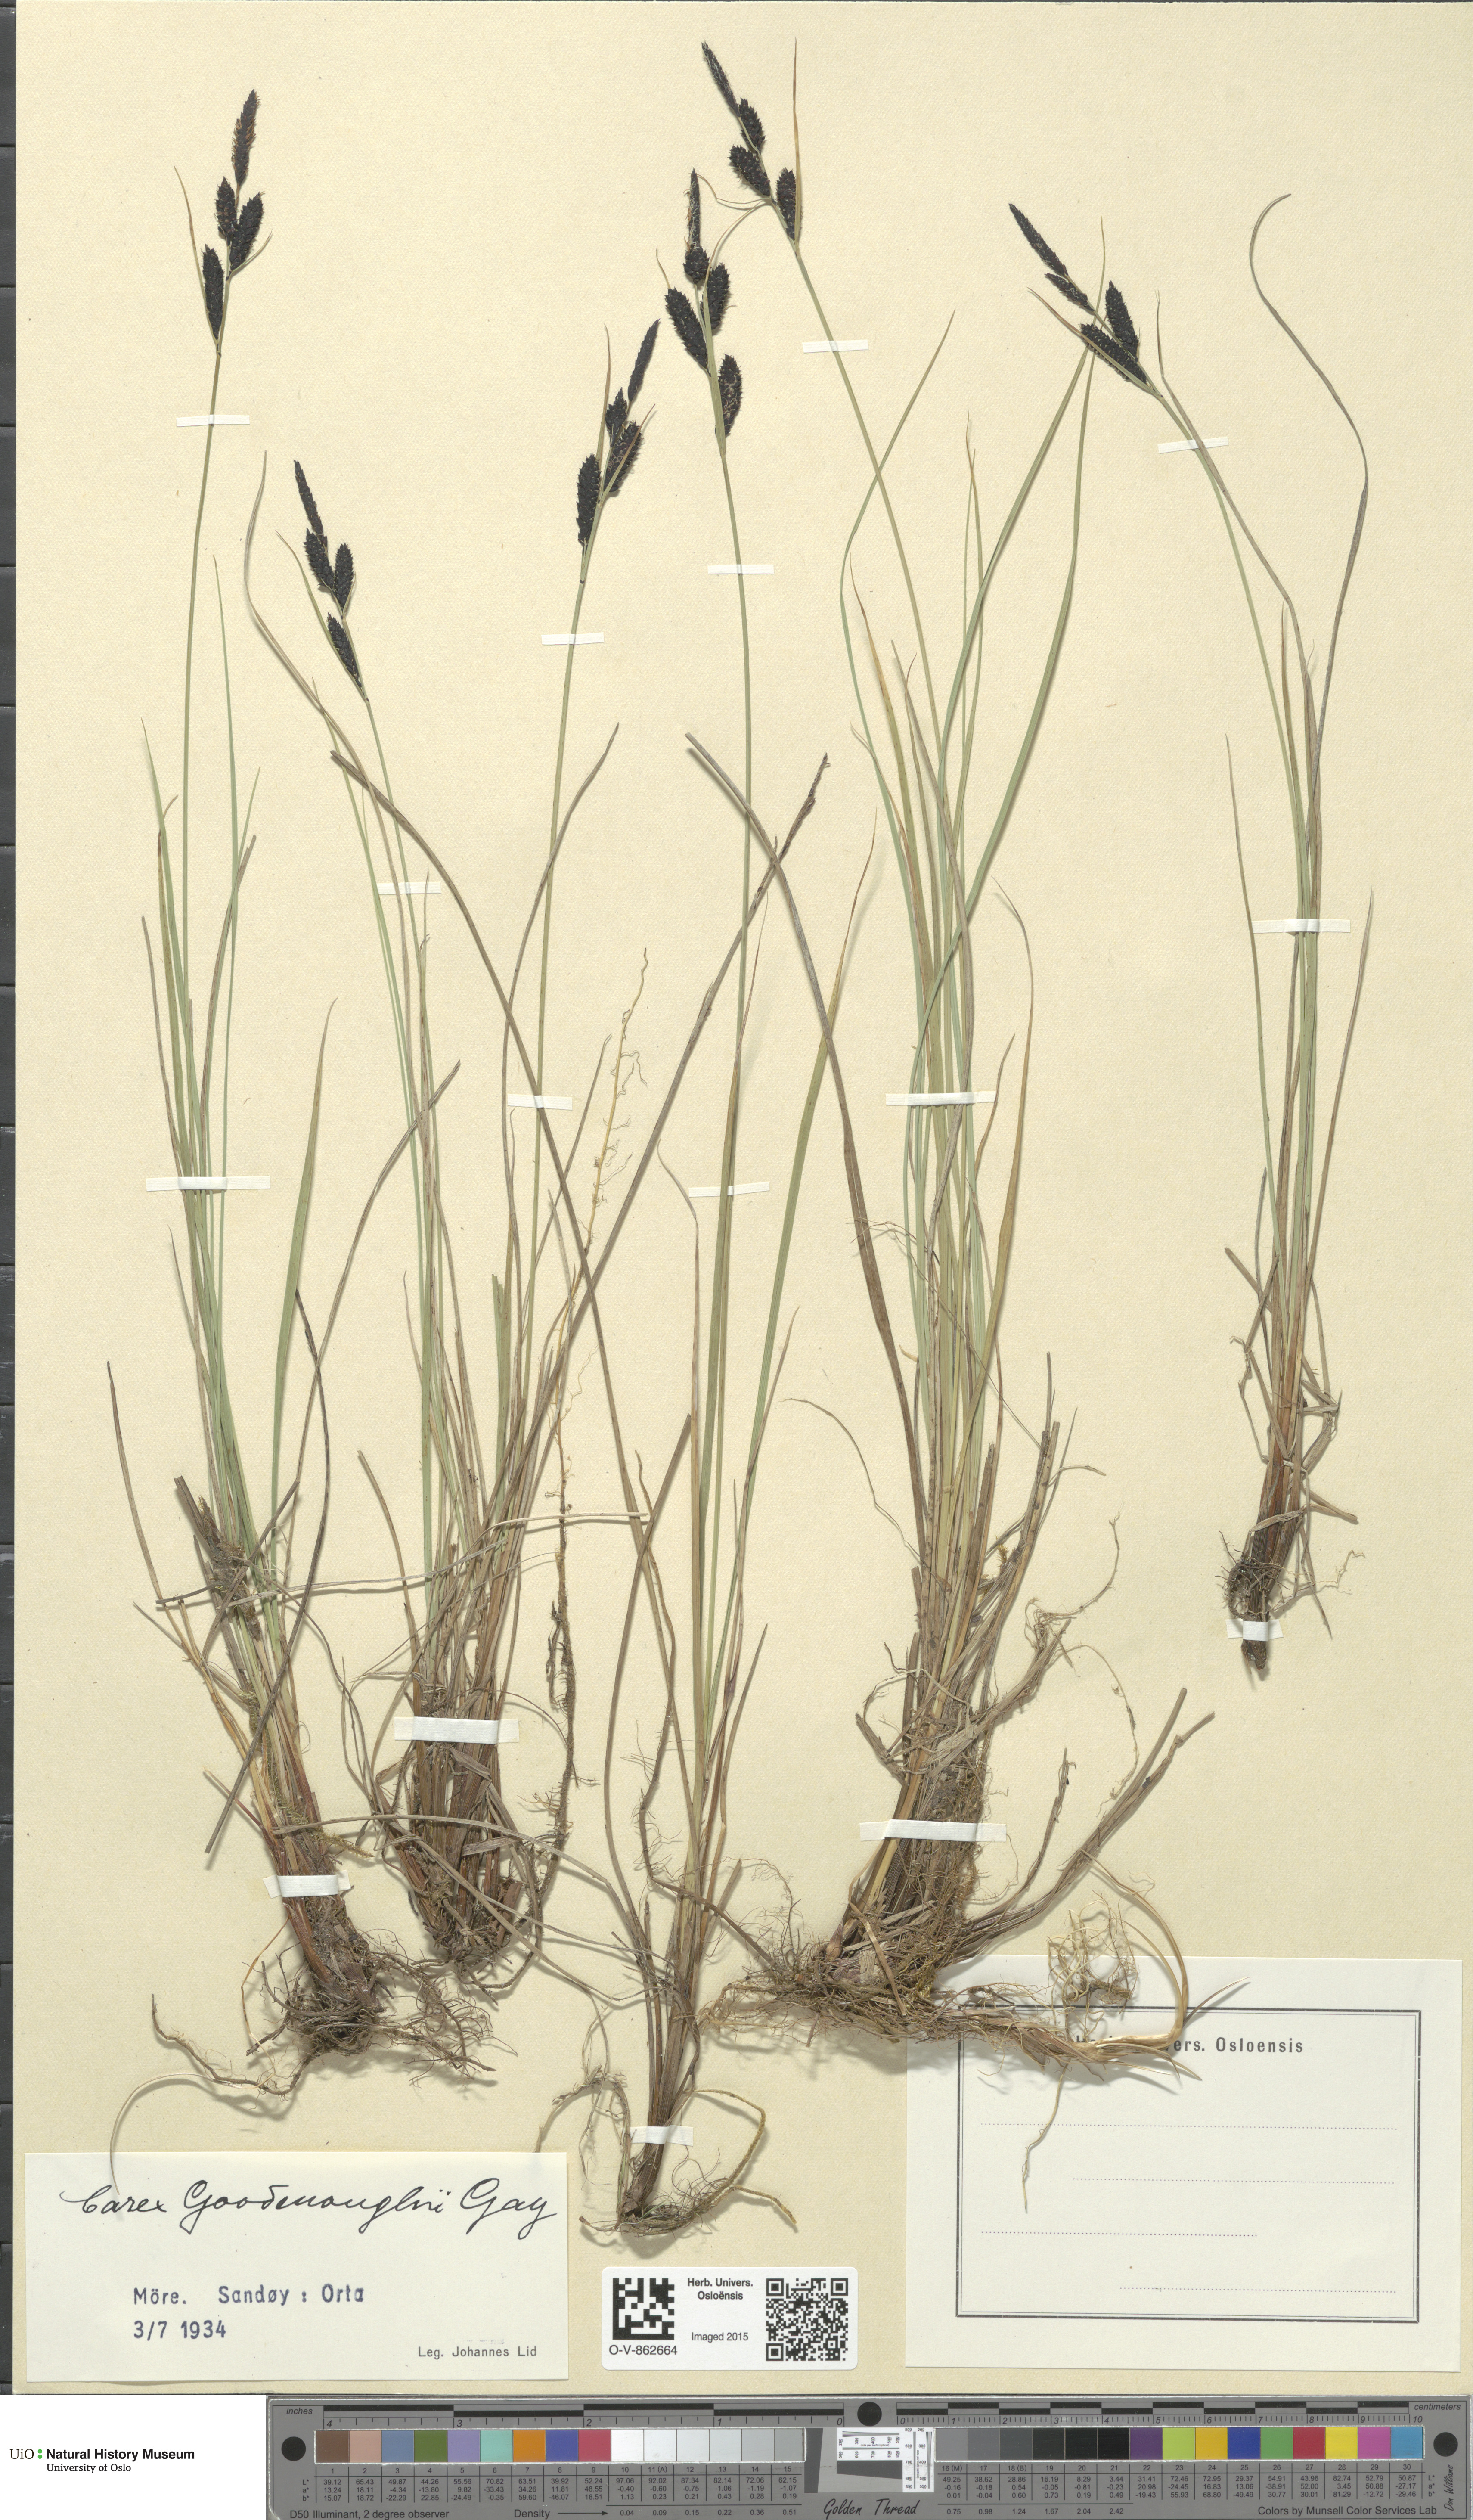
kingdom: Plantae
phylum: Tracheophyta
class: Liliopsida
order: Poales
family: Cyperaceae
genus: Carex
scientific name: Carex nigra
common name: Common sedge
